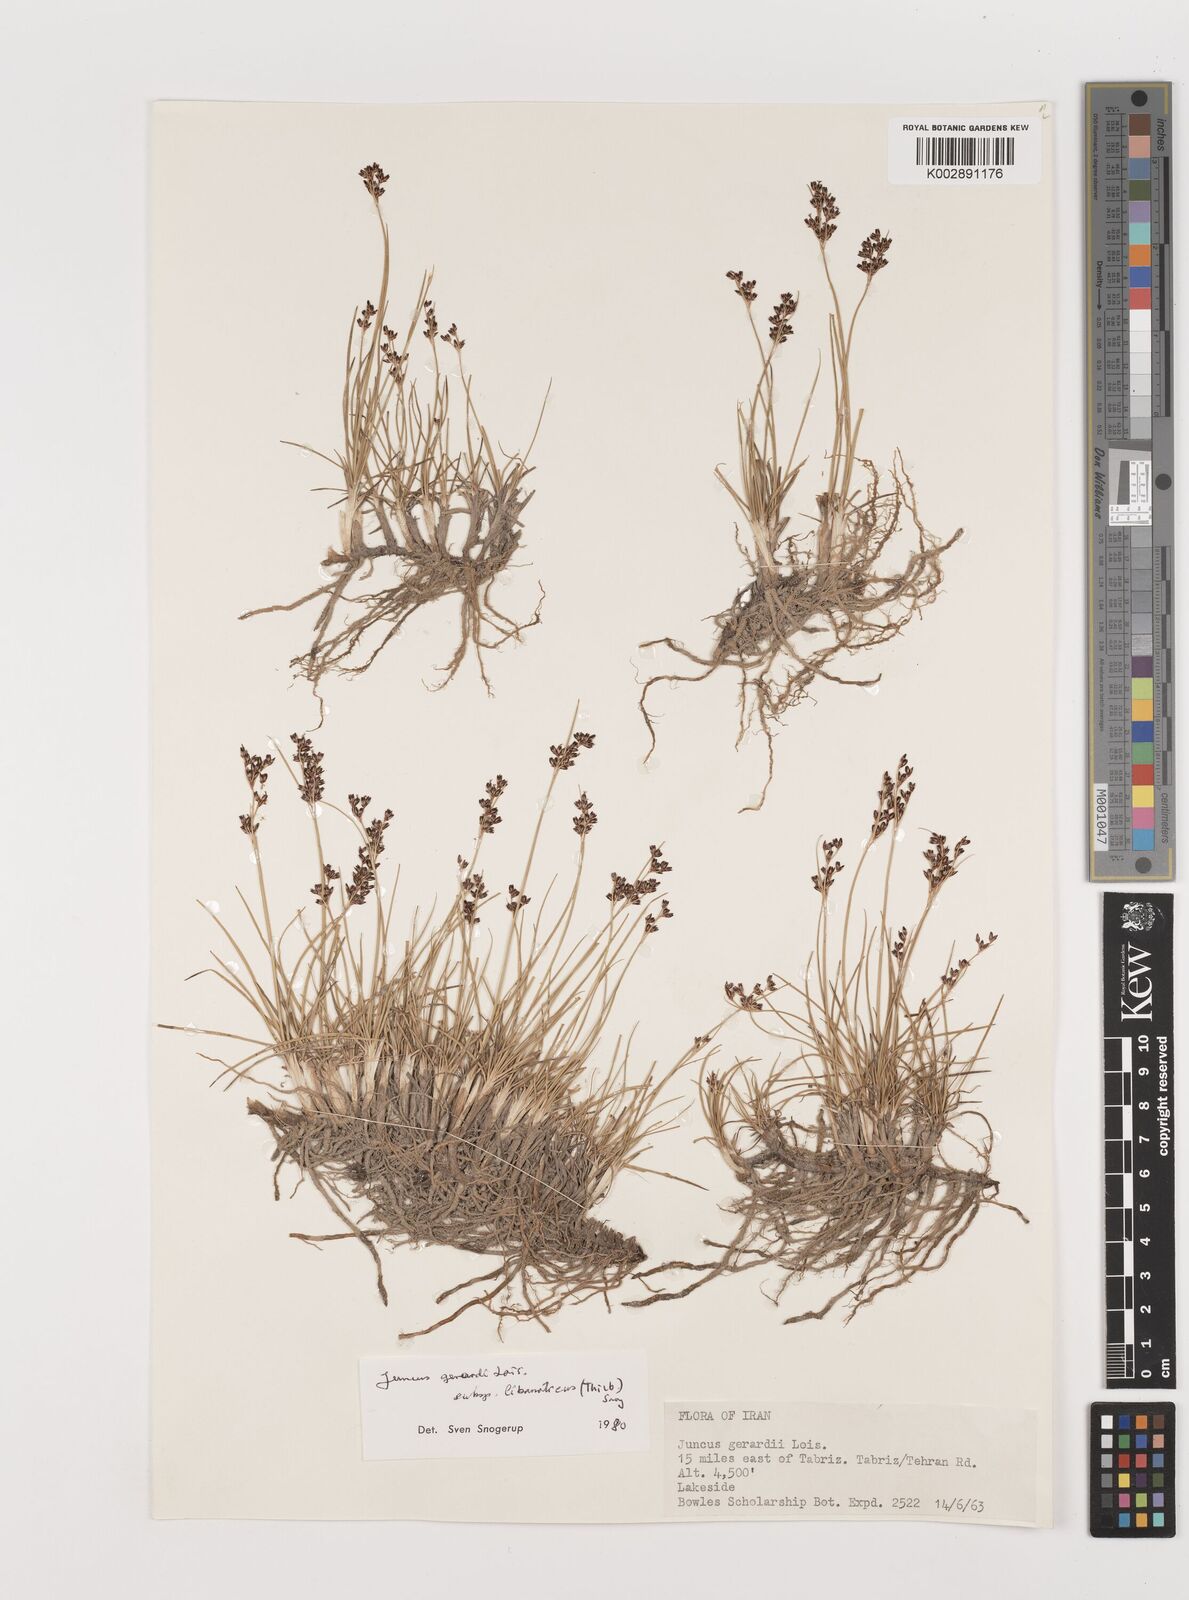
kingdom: Plantae
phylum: Tracheophyta
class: Liliopsida
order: Poales
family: Juncaceae
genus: Juncus
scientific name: Juncus persicus
